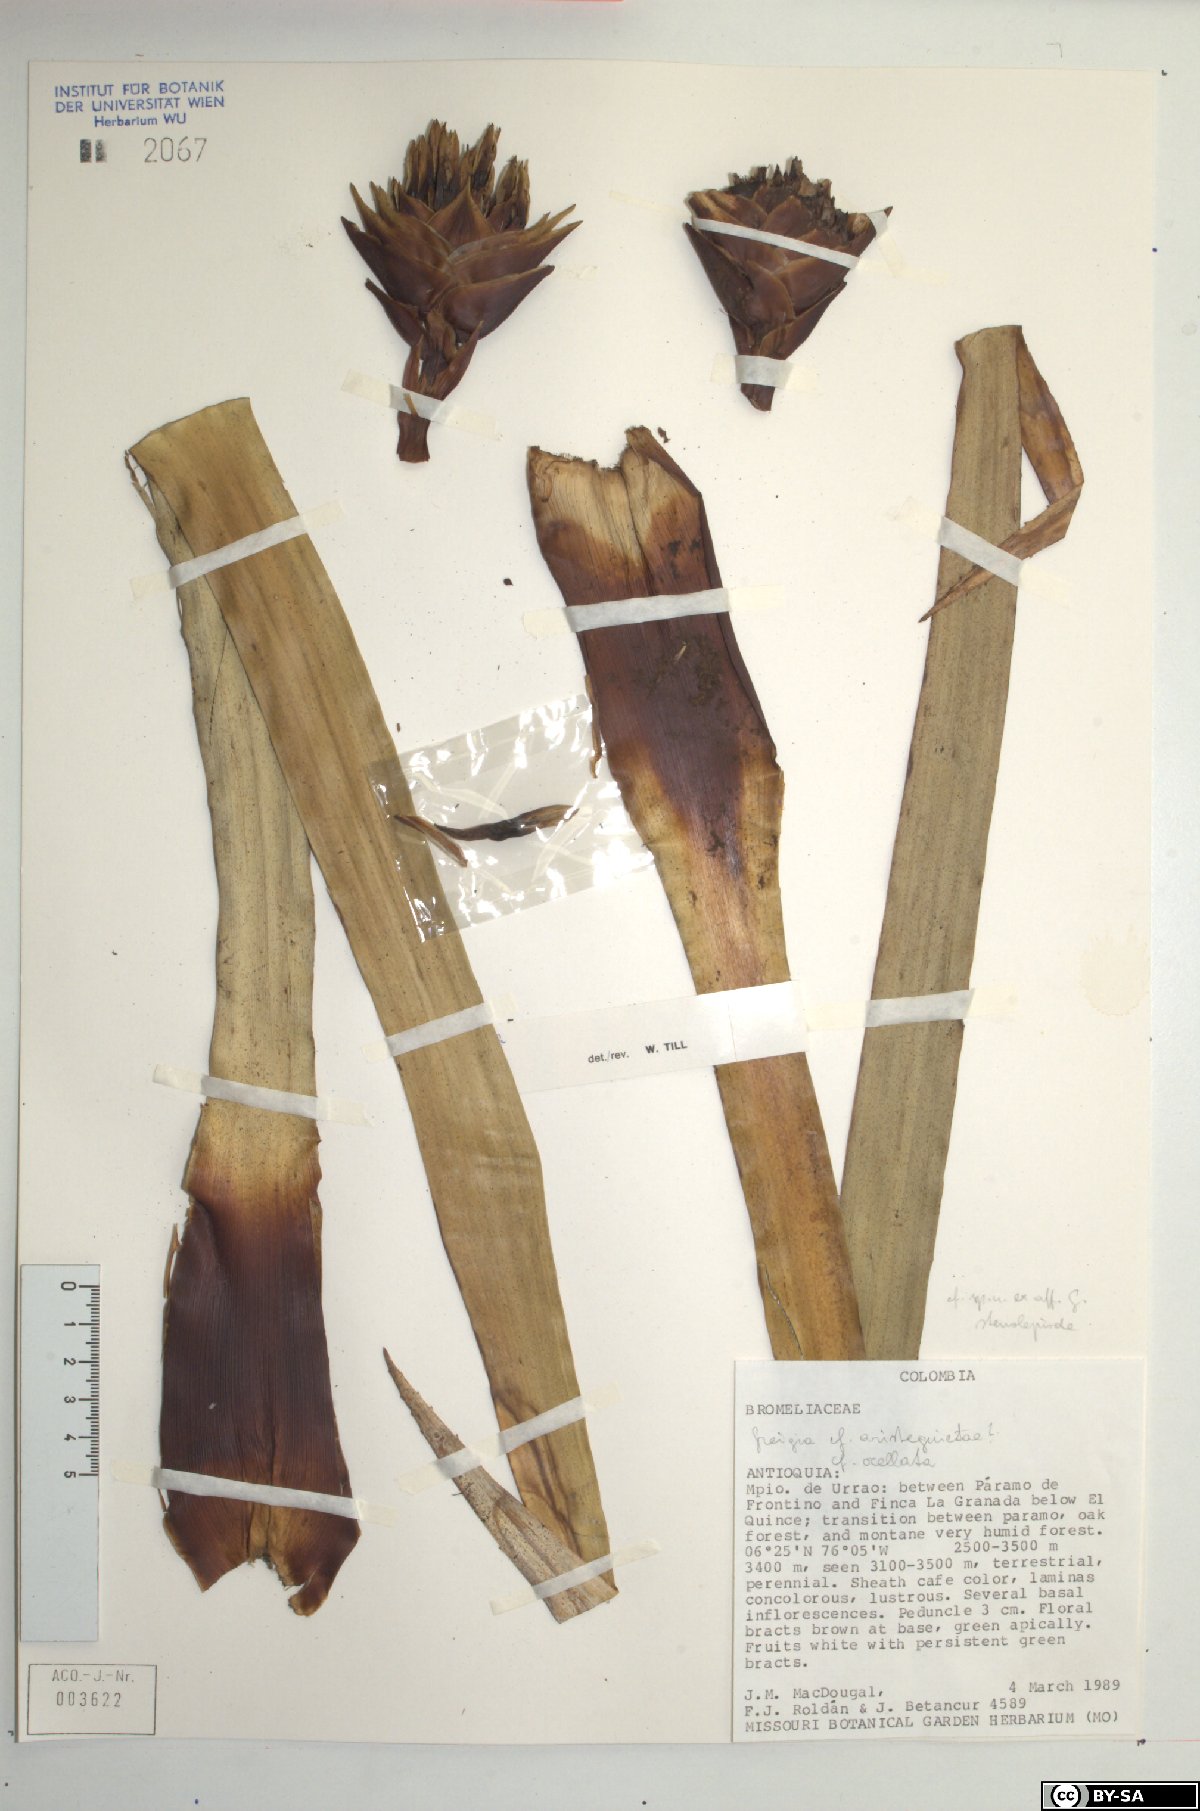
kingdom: Plantae
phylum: Tracheophyta
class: Liliopsida
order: Poales
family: Bromeliaceae
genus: Greigia
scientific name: Greigia
